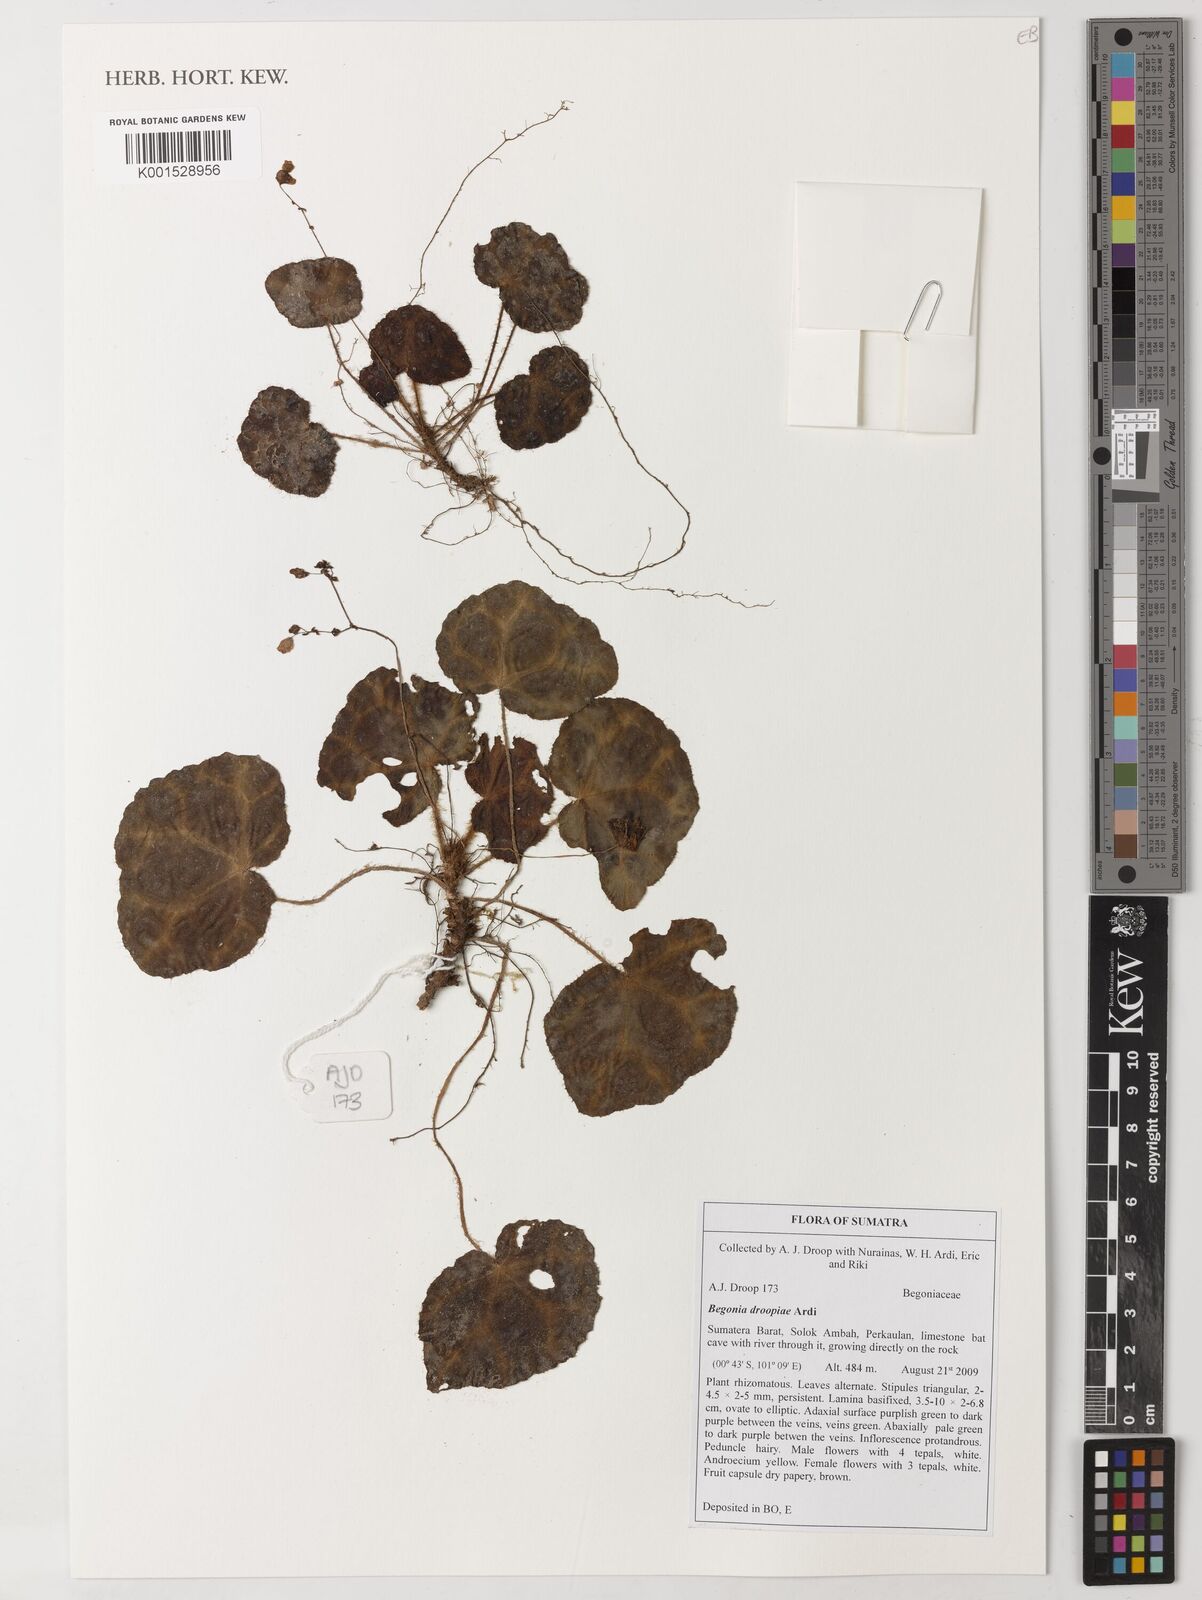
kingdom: Plantae
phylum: Tracheophyta
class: Magnoliopsida
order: Cucurbitales
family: Begoniaceae
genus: Begonia
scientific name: Begonia droopiae
